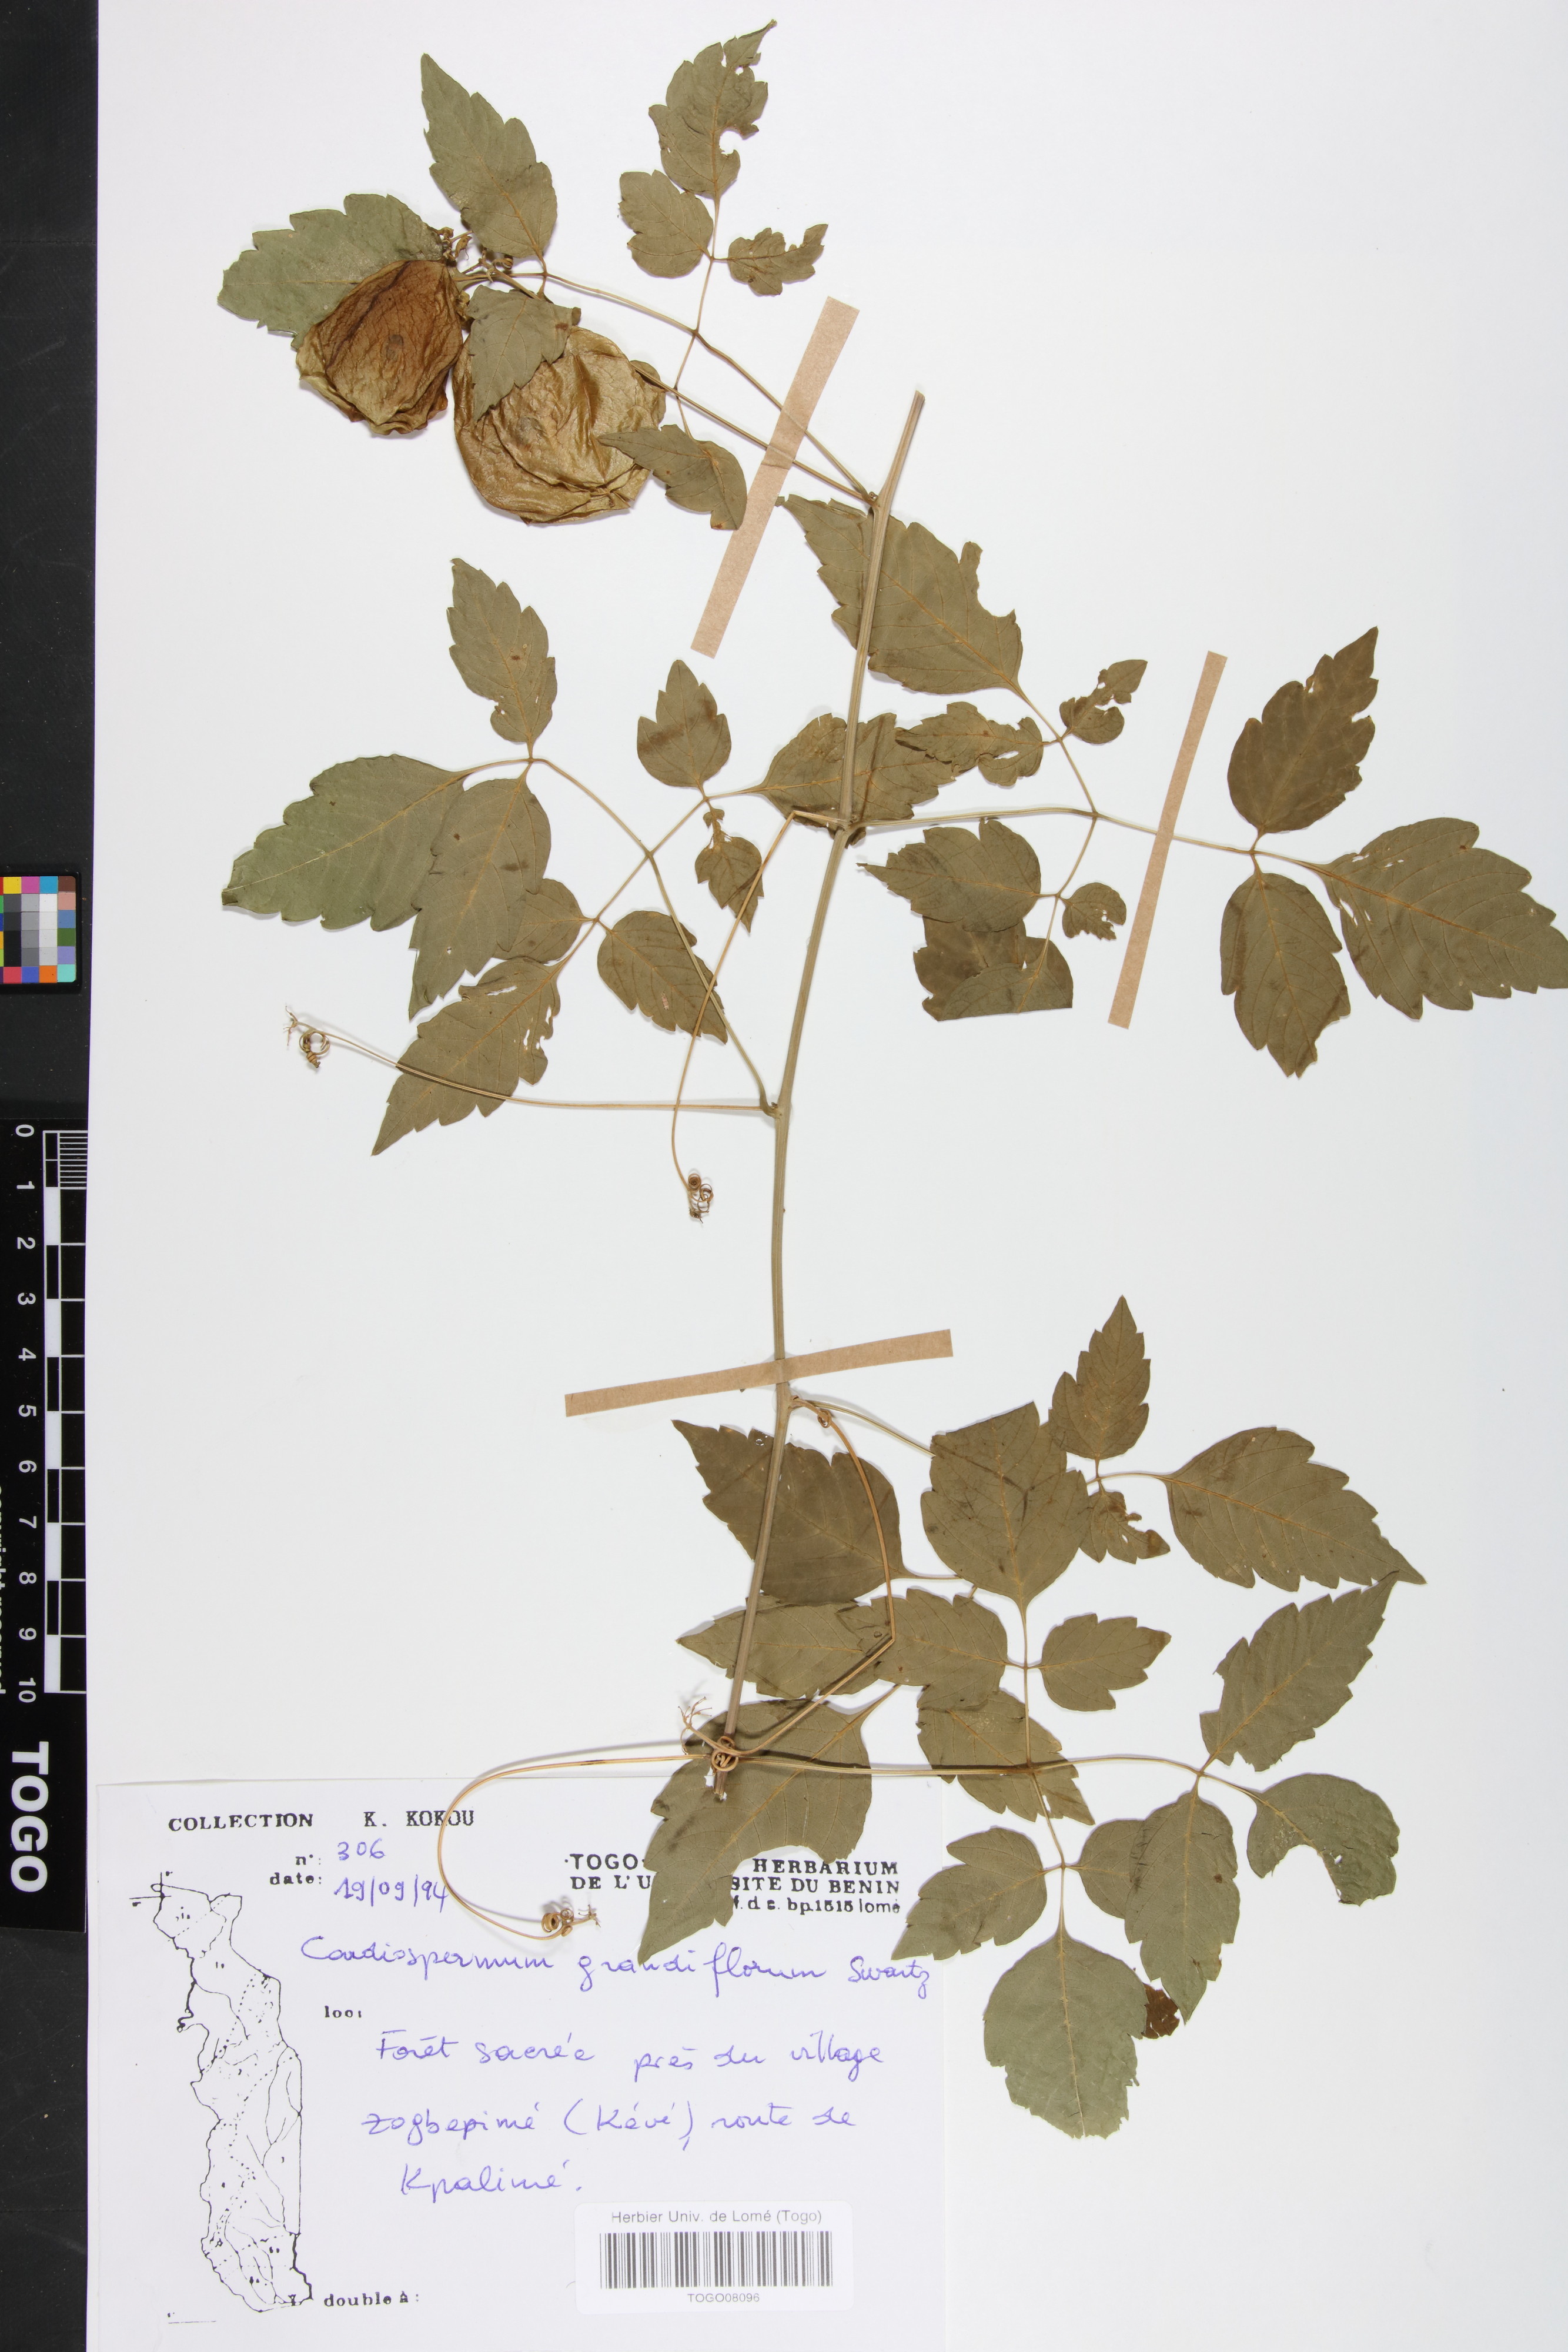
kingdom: Plantae
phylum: Tracheophyta
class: Magnoliopsida
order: Sapindales
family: Sapindaceae
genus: Cardiospermum
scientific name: Cardiospermum grandiflorum
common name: Balloon vine
